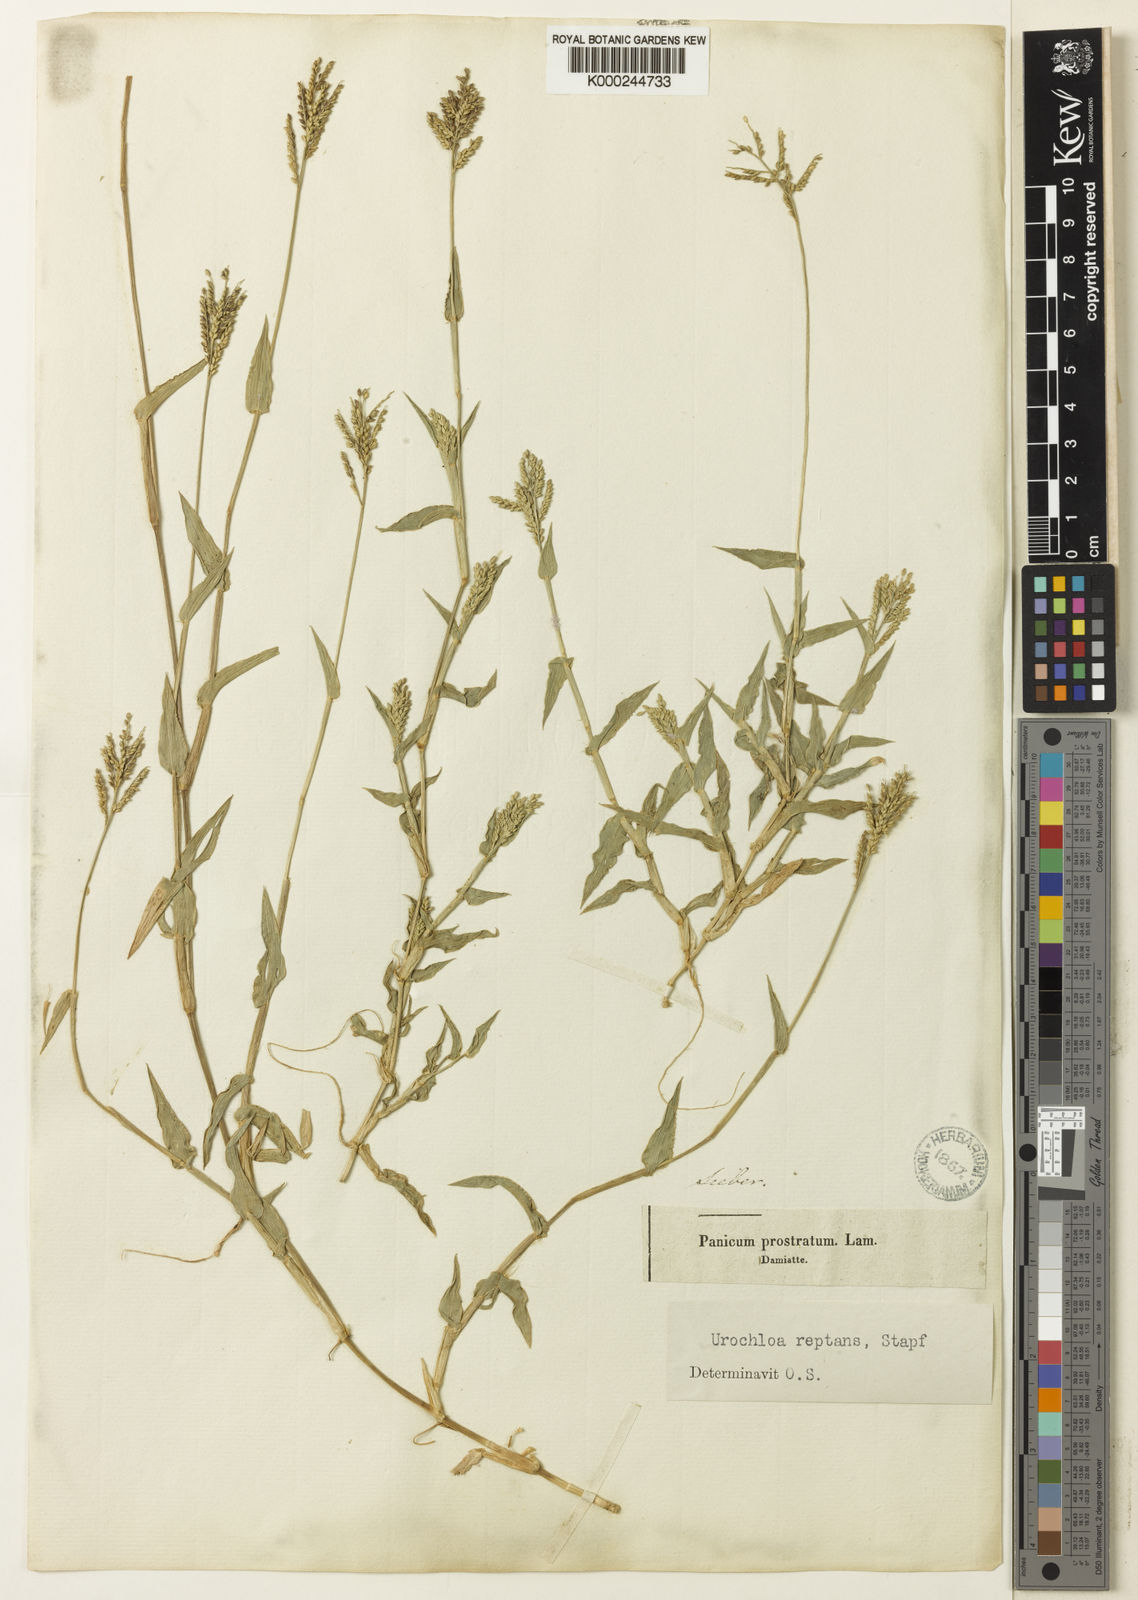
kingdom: Plantae
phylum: Tracheophyta
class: Liliopsida
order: Poales
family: Poaceae
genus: Urochloa
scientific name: Urochloa reptans
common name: Sprawling signalgrass
